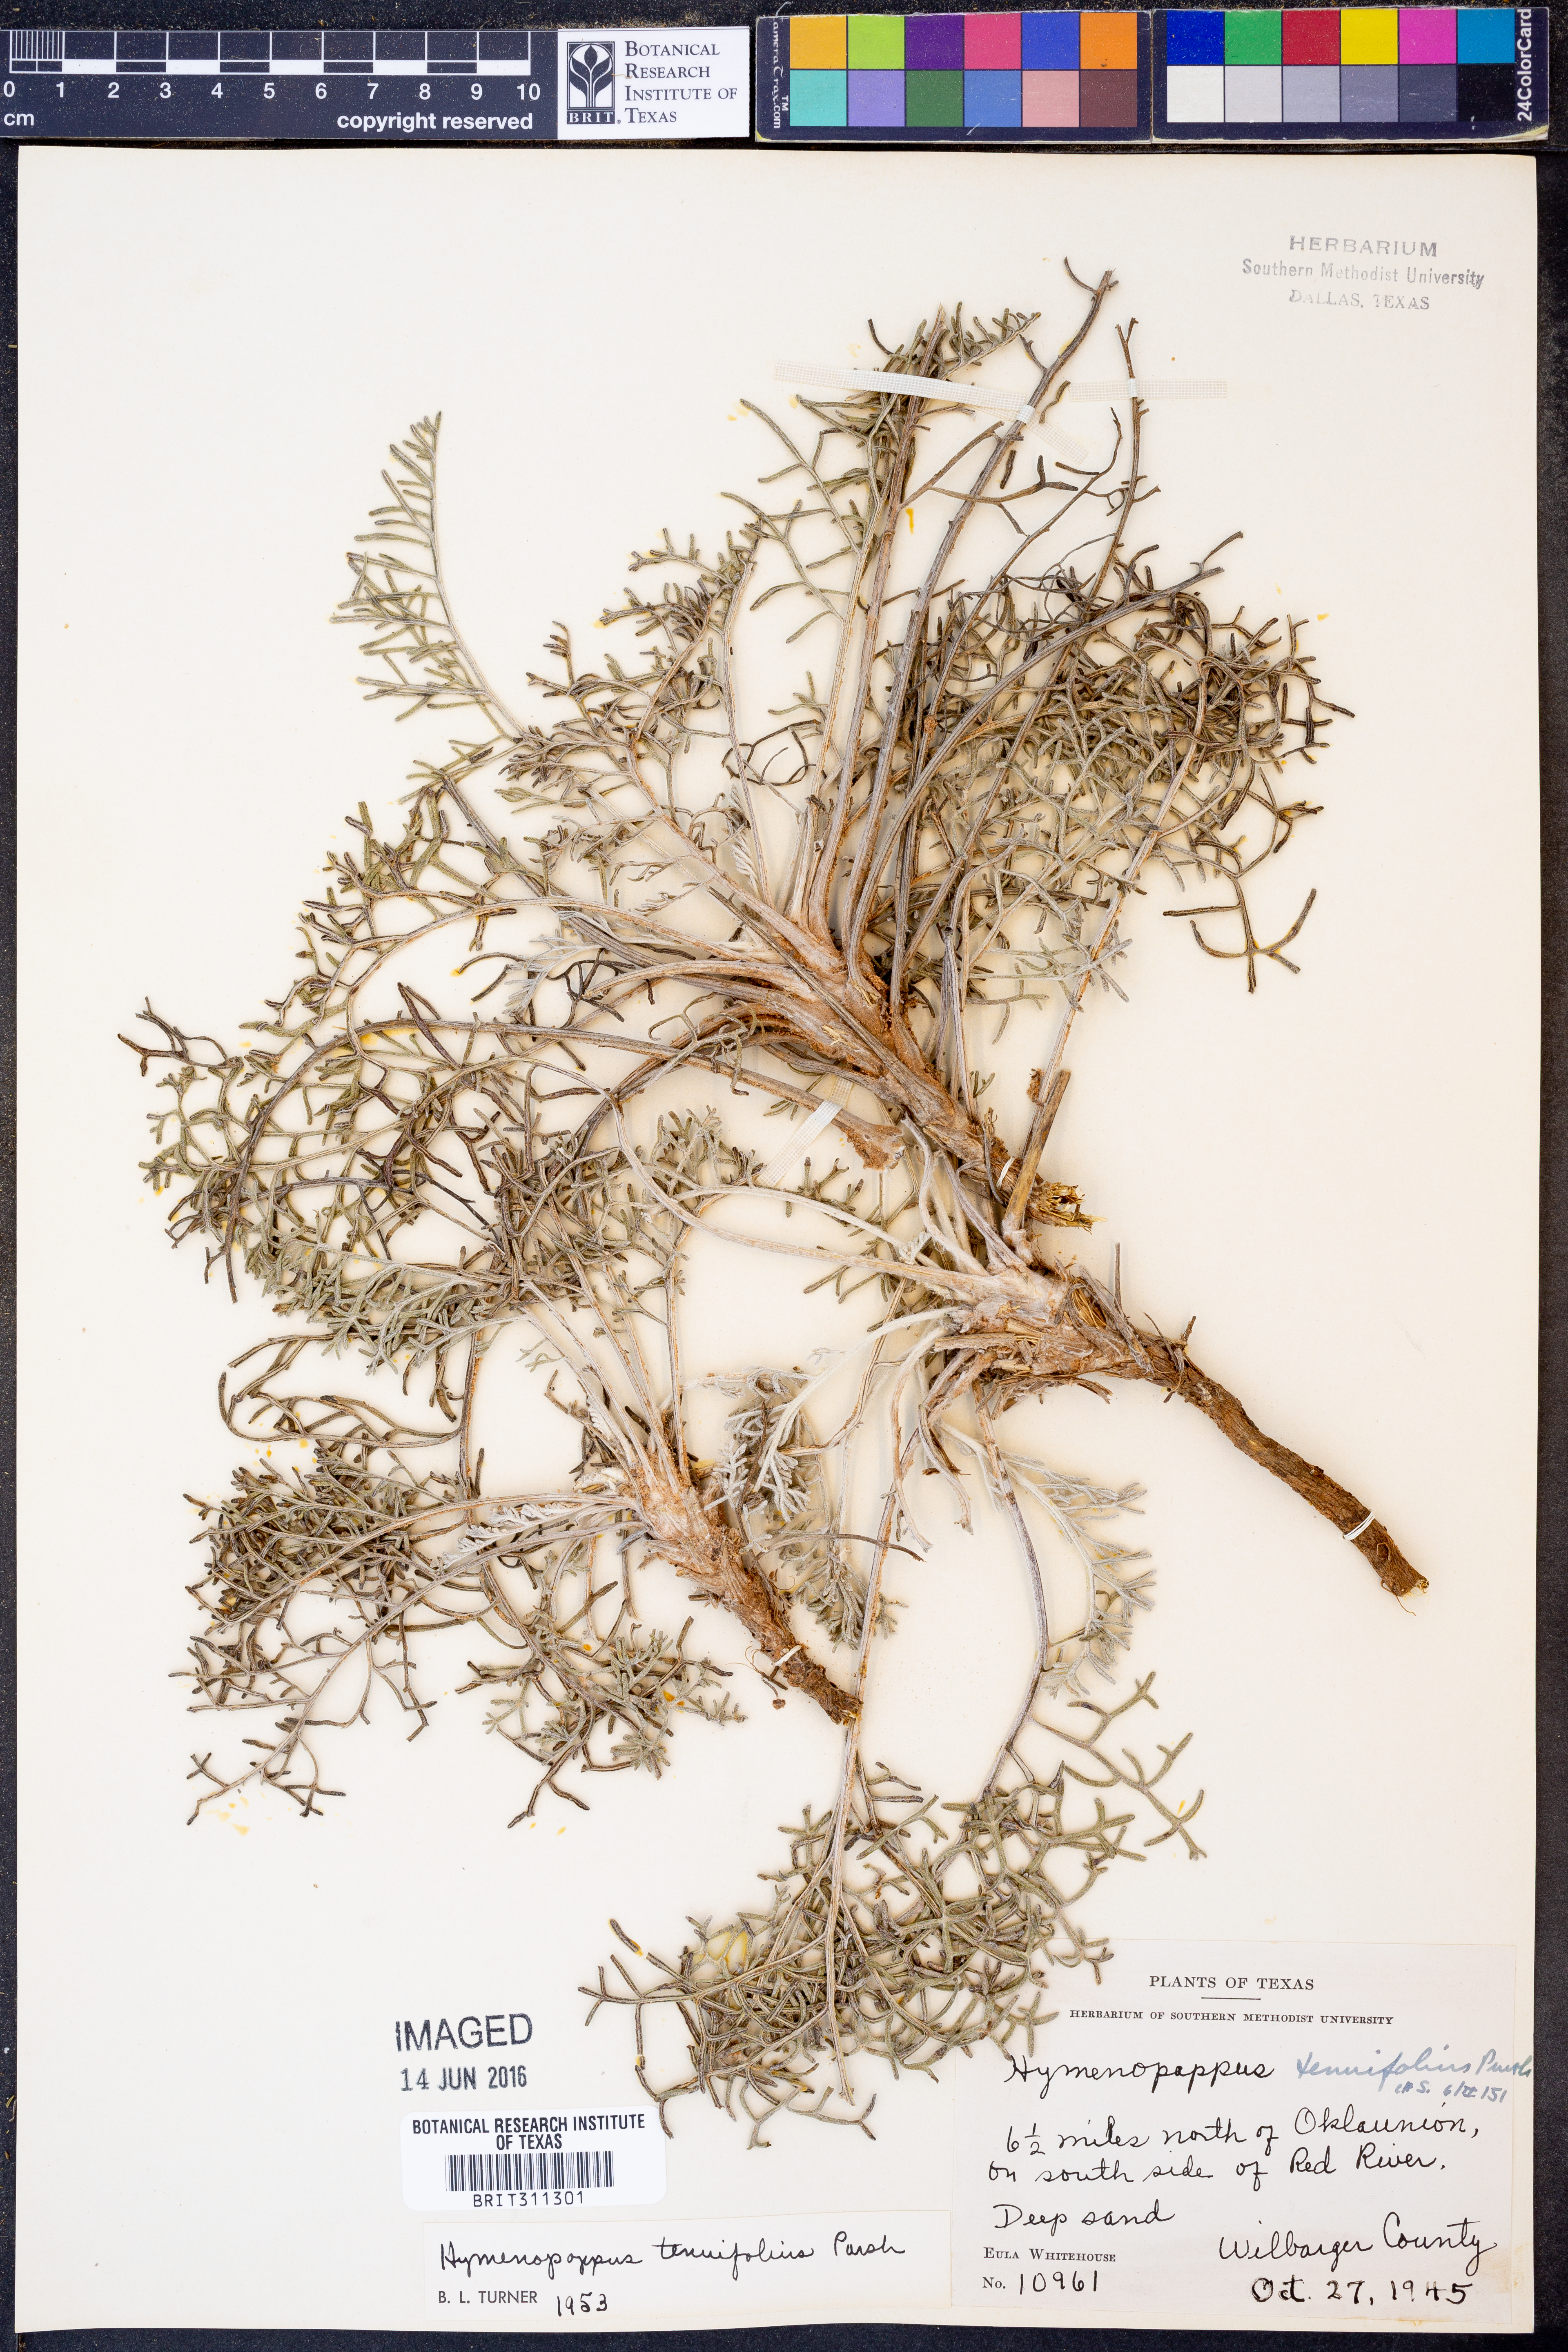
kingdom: Plantae
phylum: Tracheophyta
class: Magnoliopsida
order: Asterales
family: Asteraceae
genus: Hymenopappus
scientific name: Hymenopappus tenuifolius
